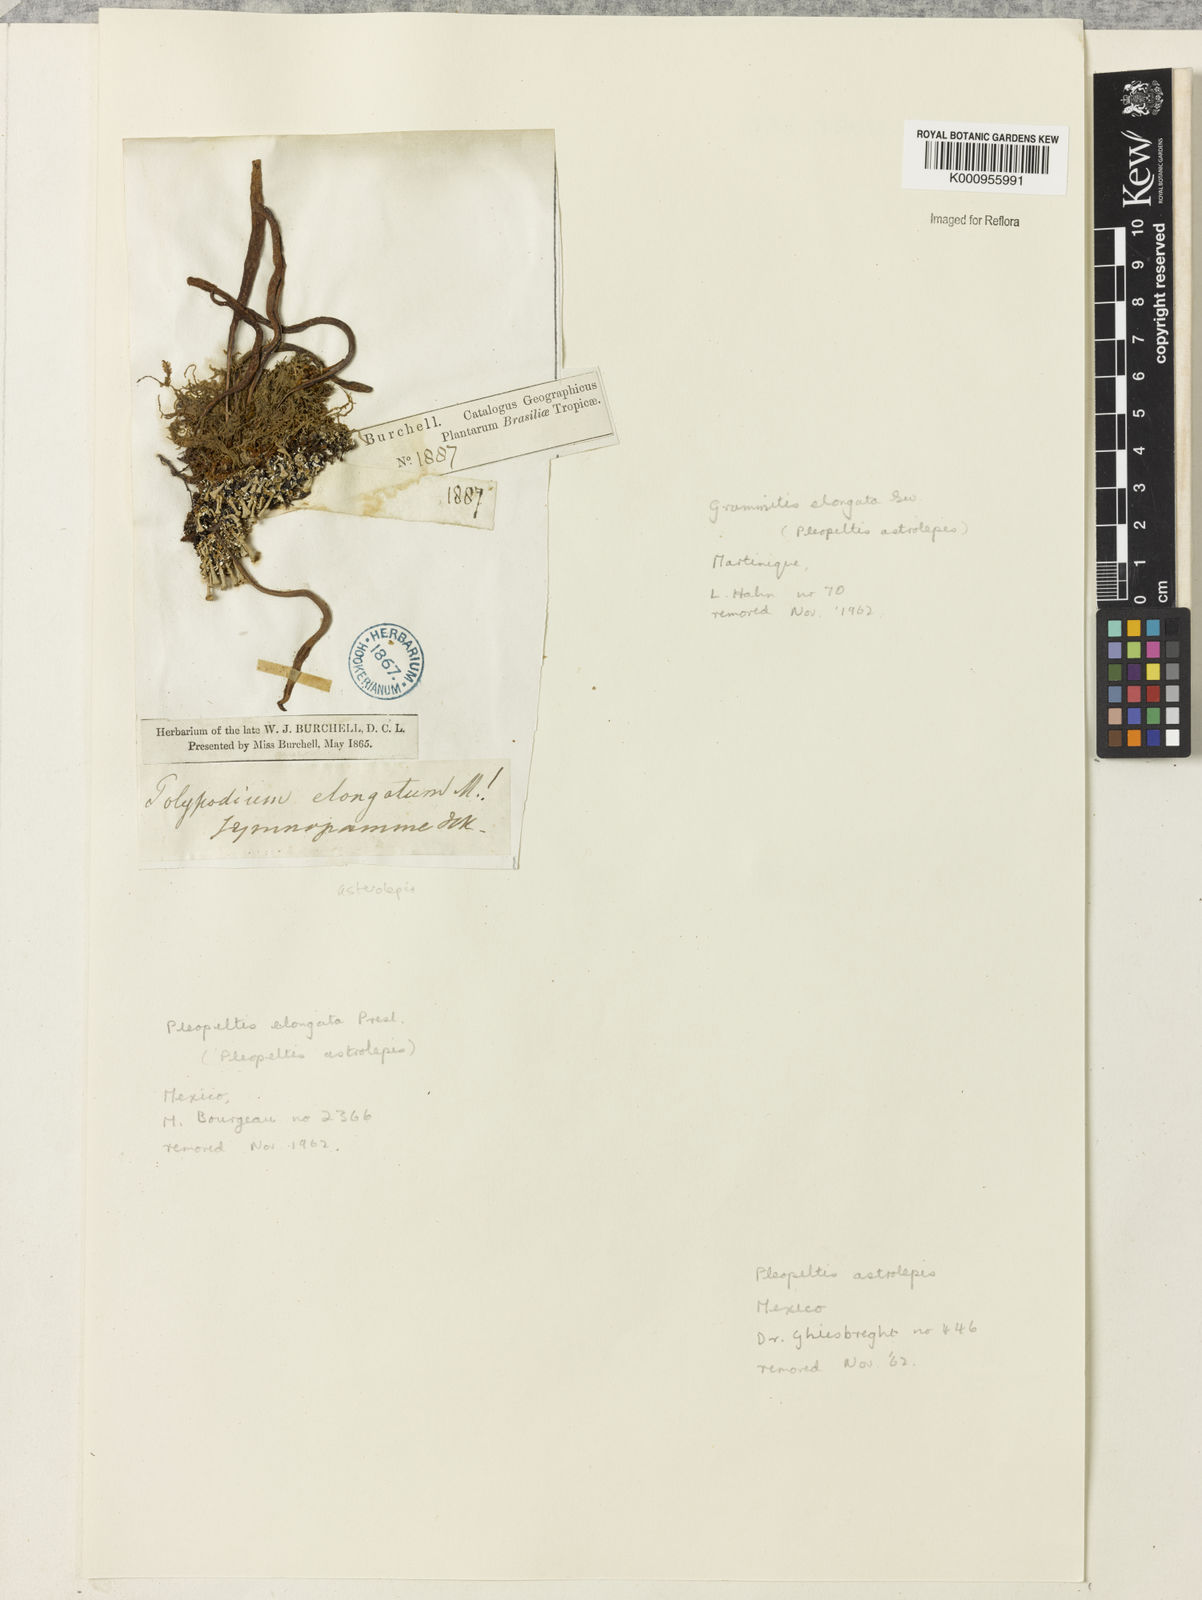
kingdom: Plantae
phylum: Tracheophyta
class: Polypodiopsida
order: Polypodiales
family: Polypodiaceae
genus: Pleopeltis
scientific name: Pleopeltis astrolepis
